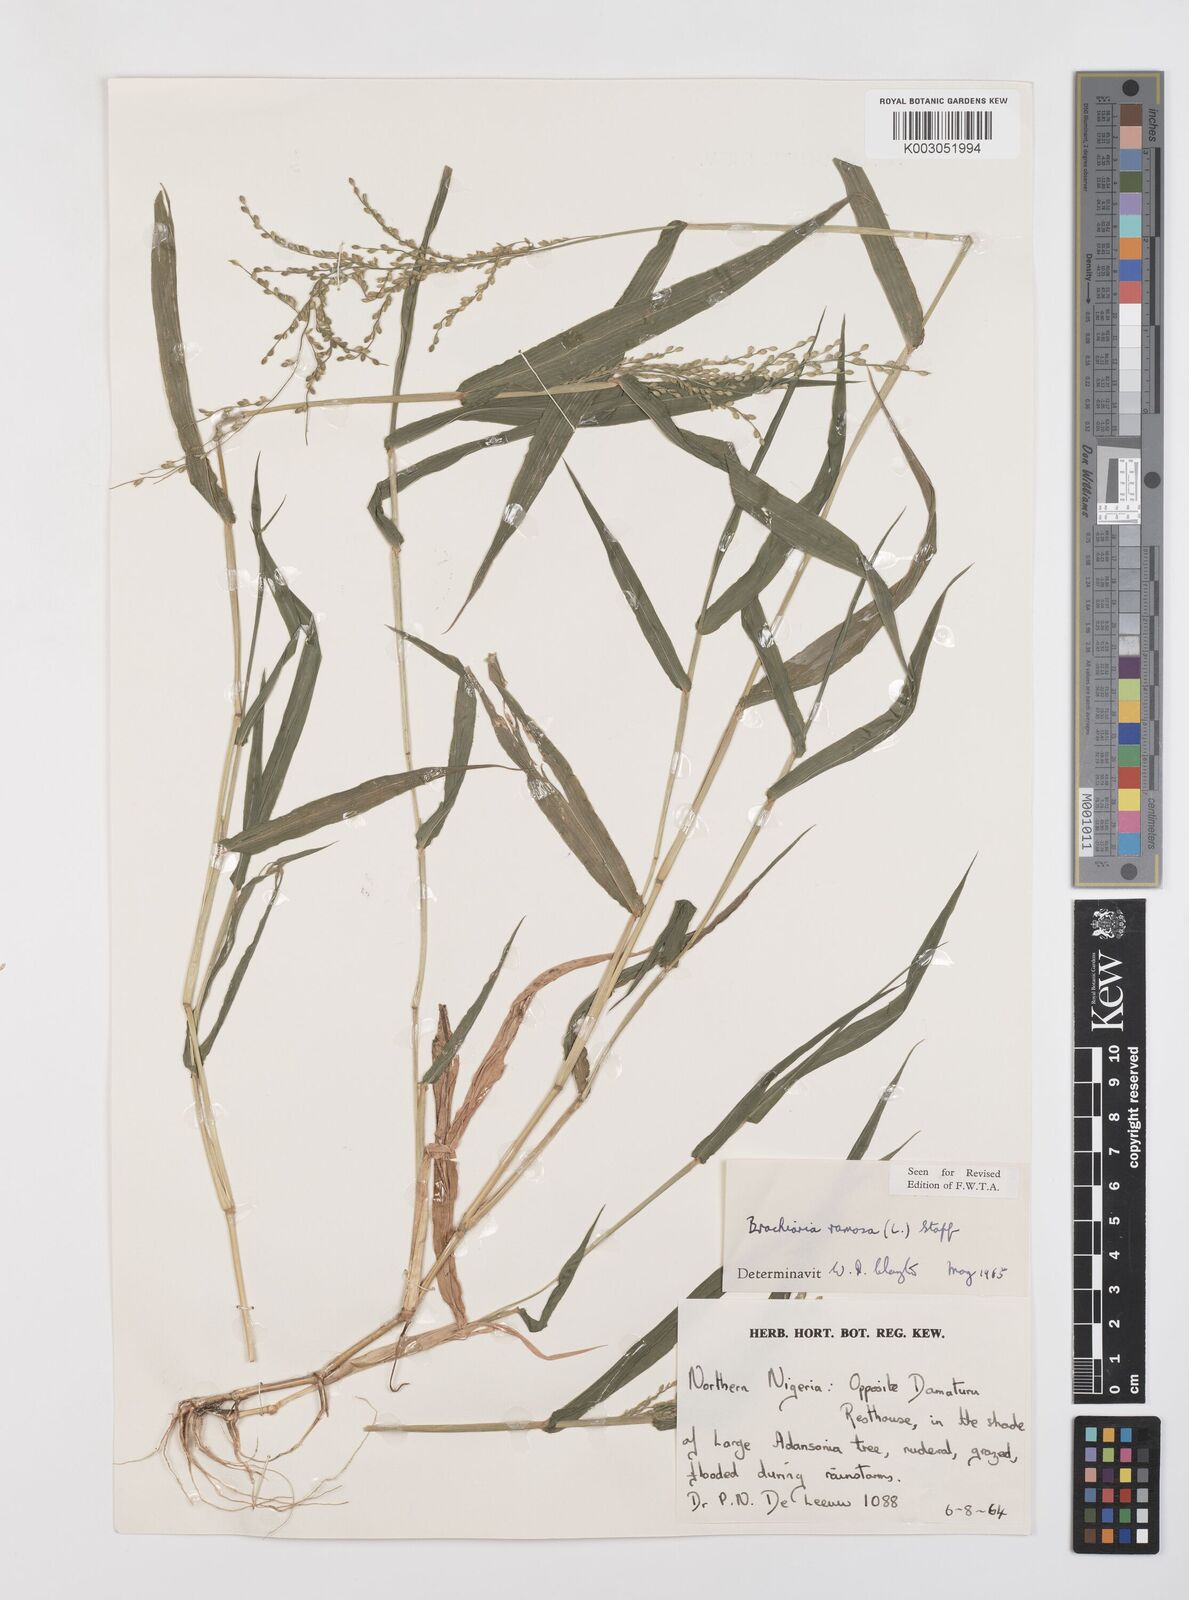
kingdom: Plantae
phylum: Tracheophyta
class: Liliopsida
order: Poales
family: Poaceae
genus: Urochloa
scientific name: Urochloa ramosa
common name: Browntop millet
